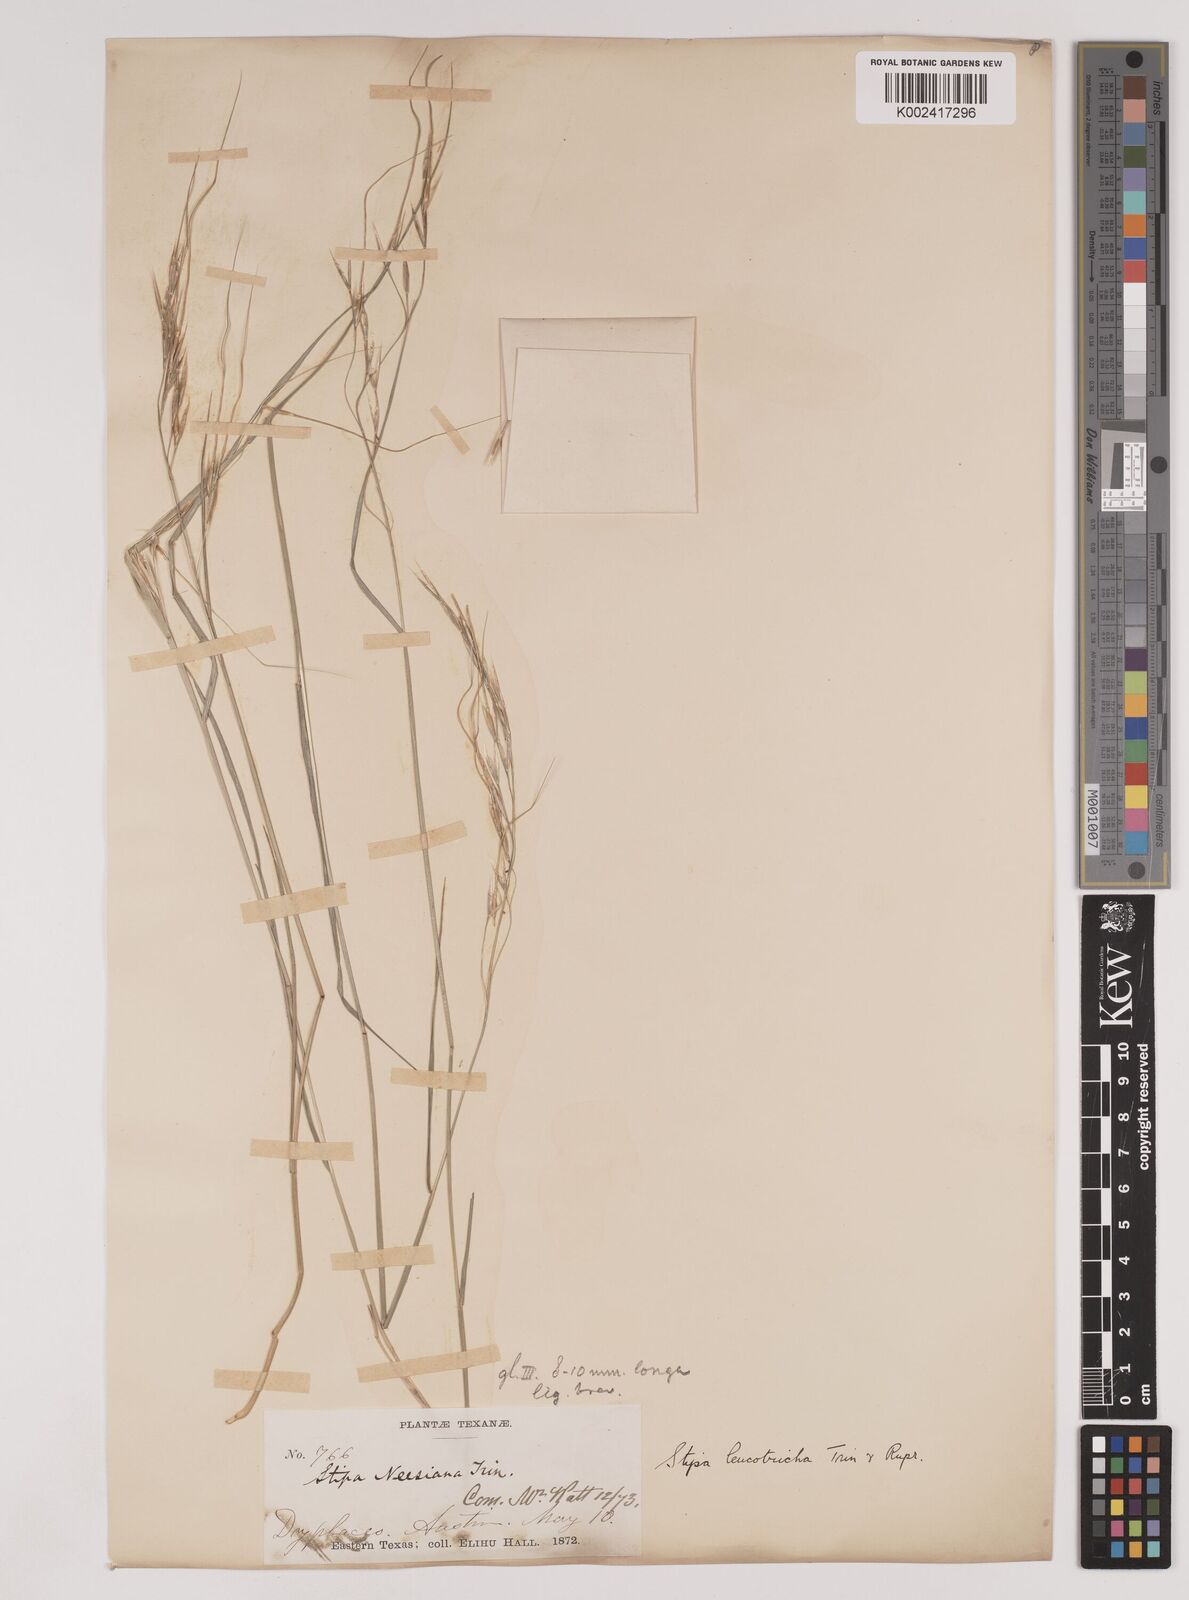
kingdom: Plantae
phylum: Tracheophyta
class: Liliopsida
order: Poales
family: Poaceae
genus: Nassella
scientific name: Nassella leucotricha
